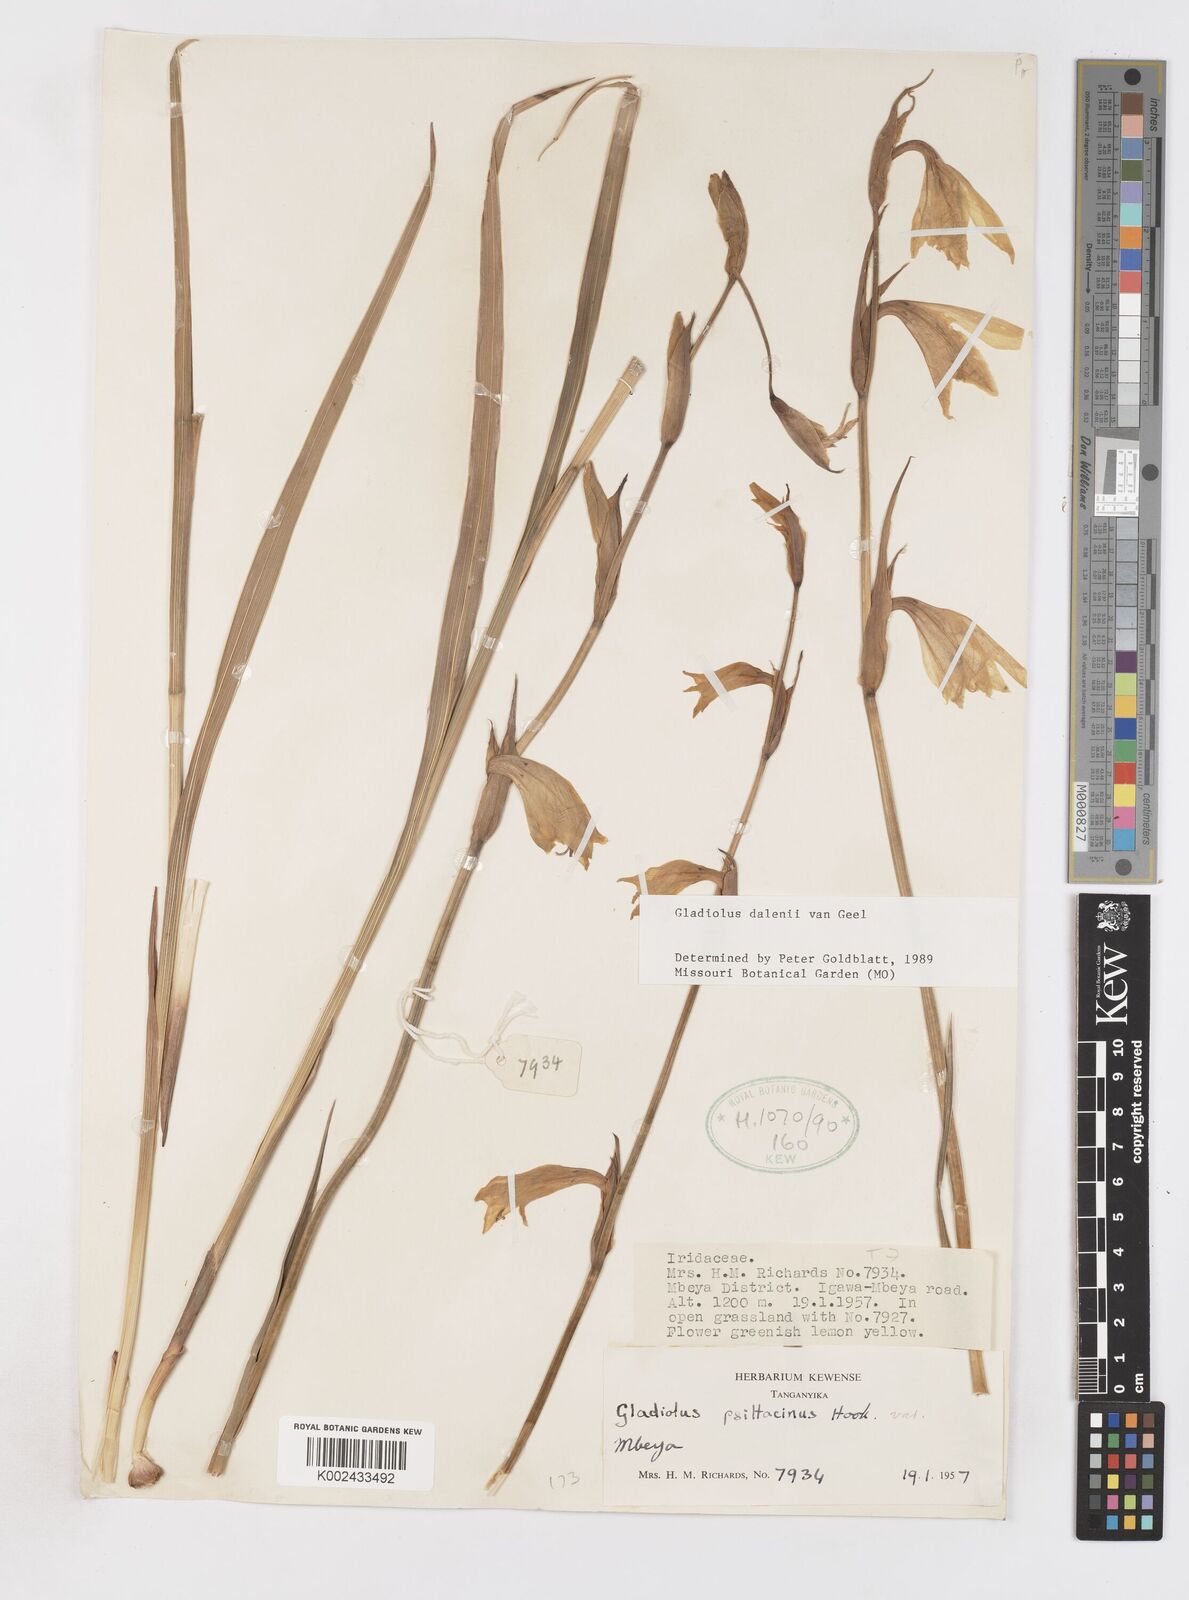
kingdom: Plantae
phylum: Tracheophyta
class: Liliopsida
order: Asparagales
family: Iridaceae
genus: Gladiolus
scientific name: Gladiolus dalenii
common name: Cornflag
